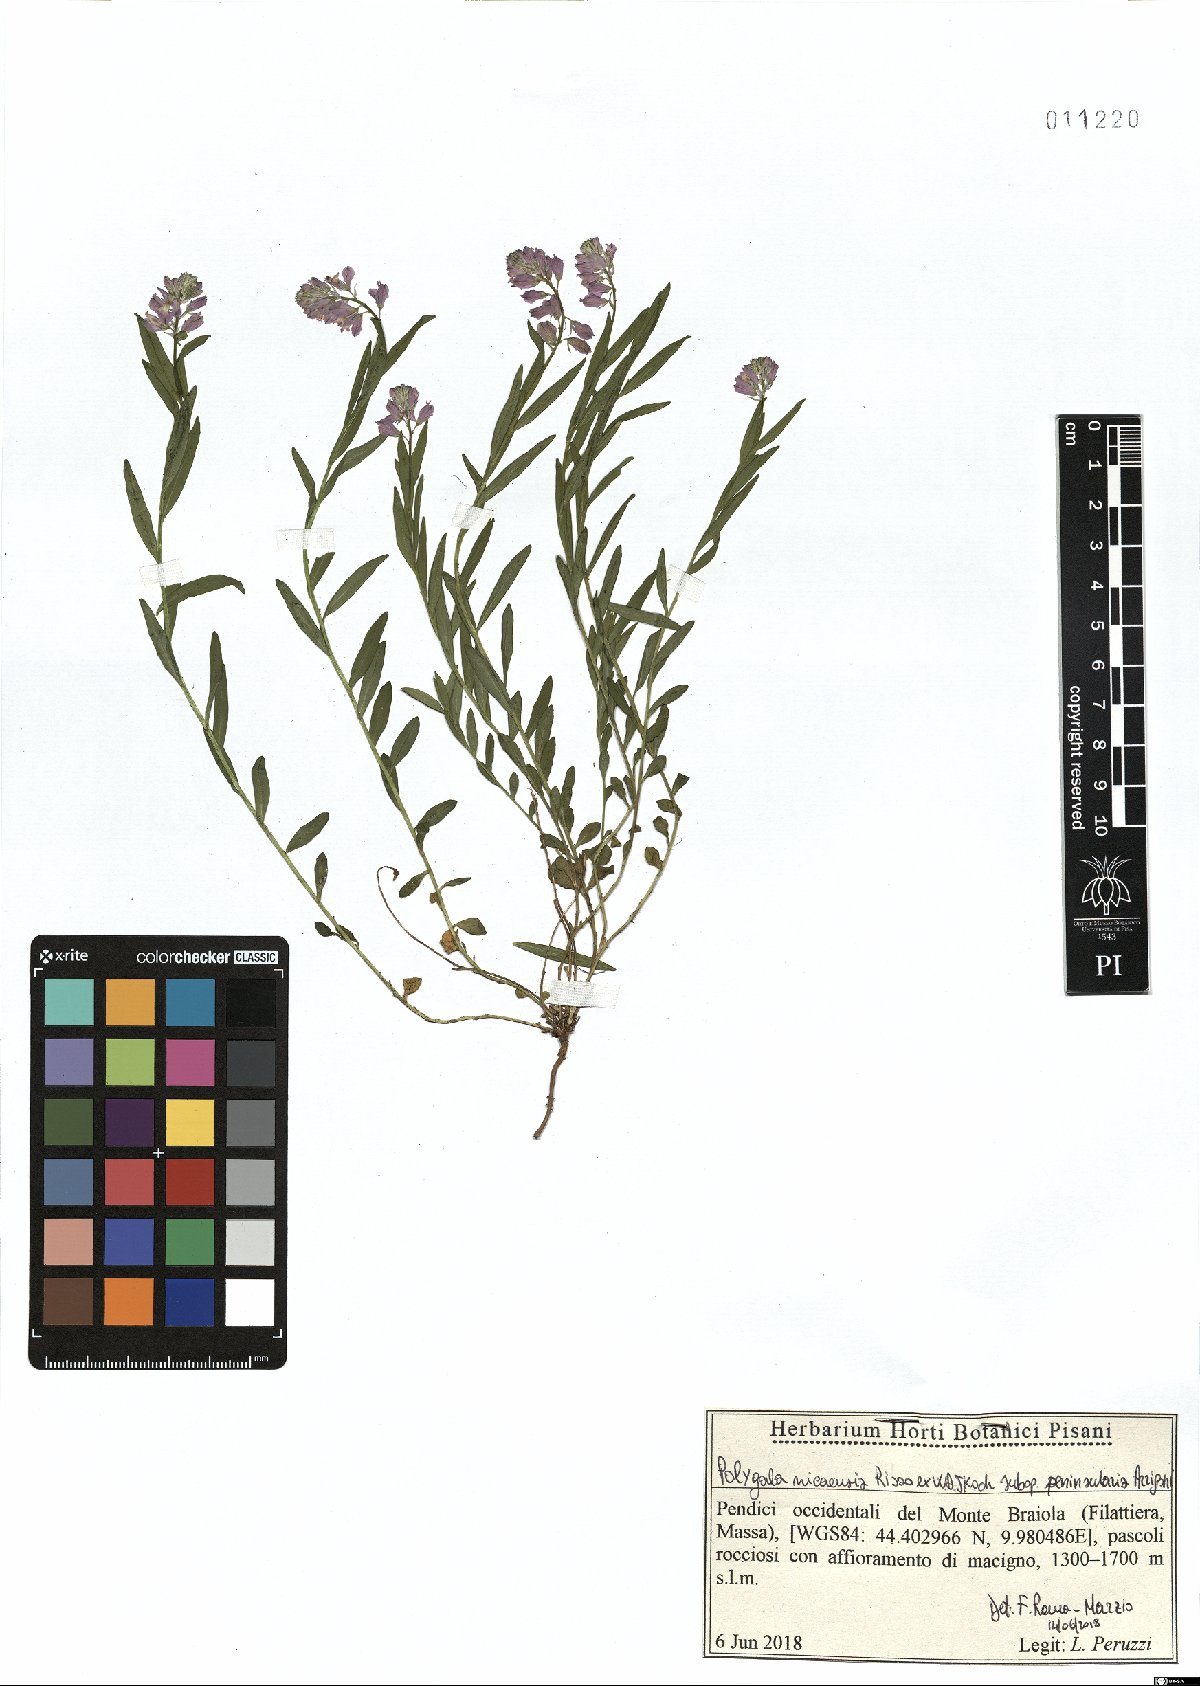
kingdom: Plantae
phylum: Tracheophyta
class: Magnoliopsida
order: Fabales
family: Polygalaceae
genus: Polygala
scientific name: Polygala nicaeensis
